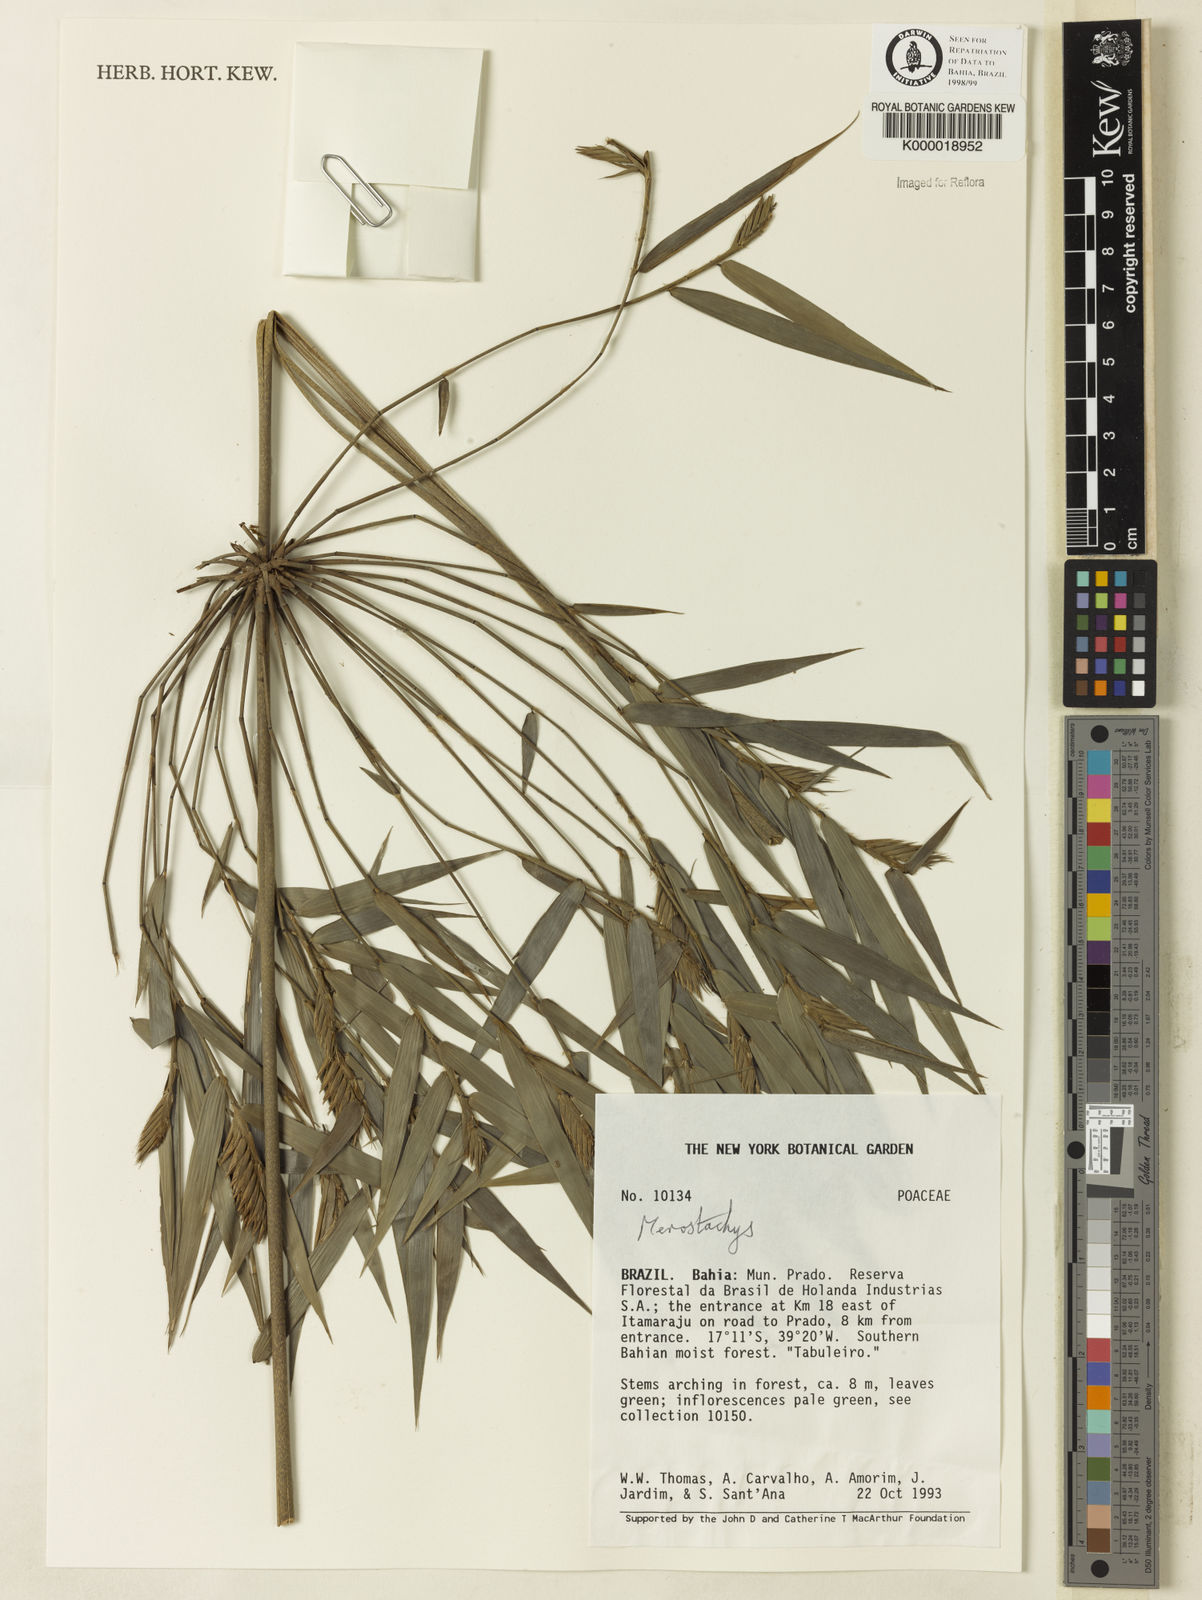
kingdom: Plantae
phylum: Tracheophyta
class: Liliopsida
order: Poales
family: Poaceae
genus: Merostachys
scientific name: Merostachys
